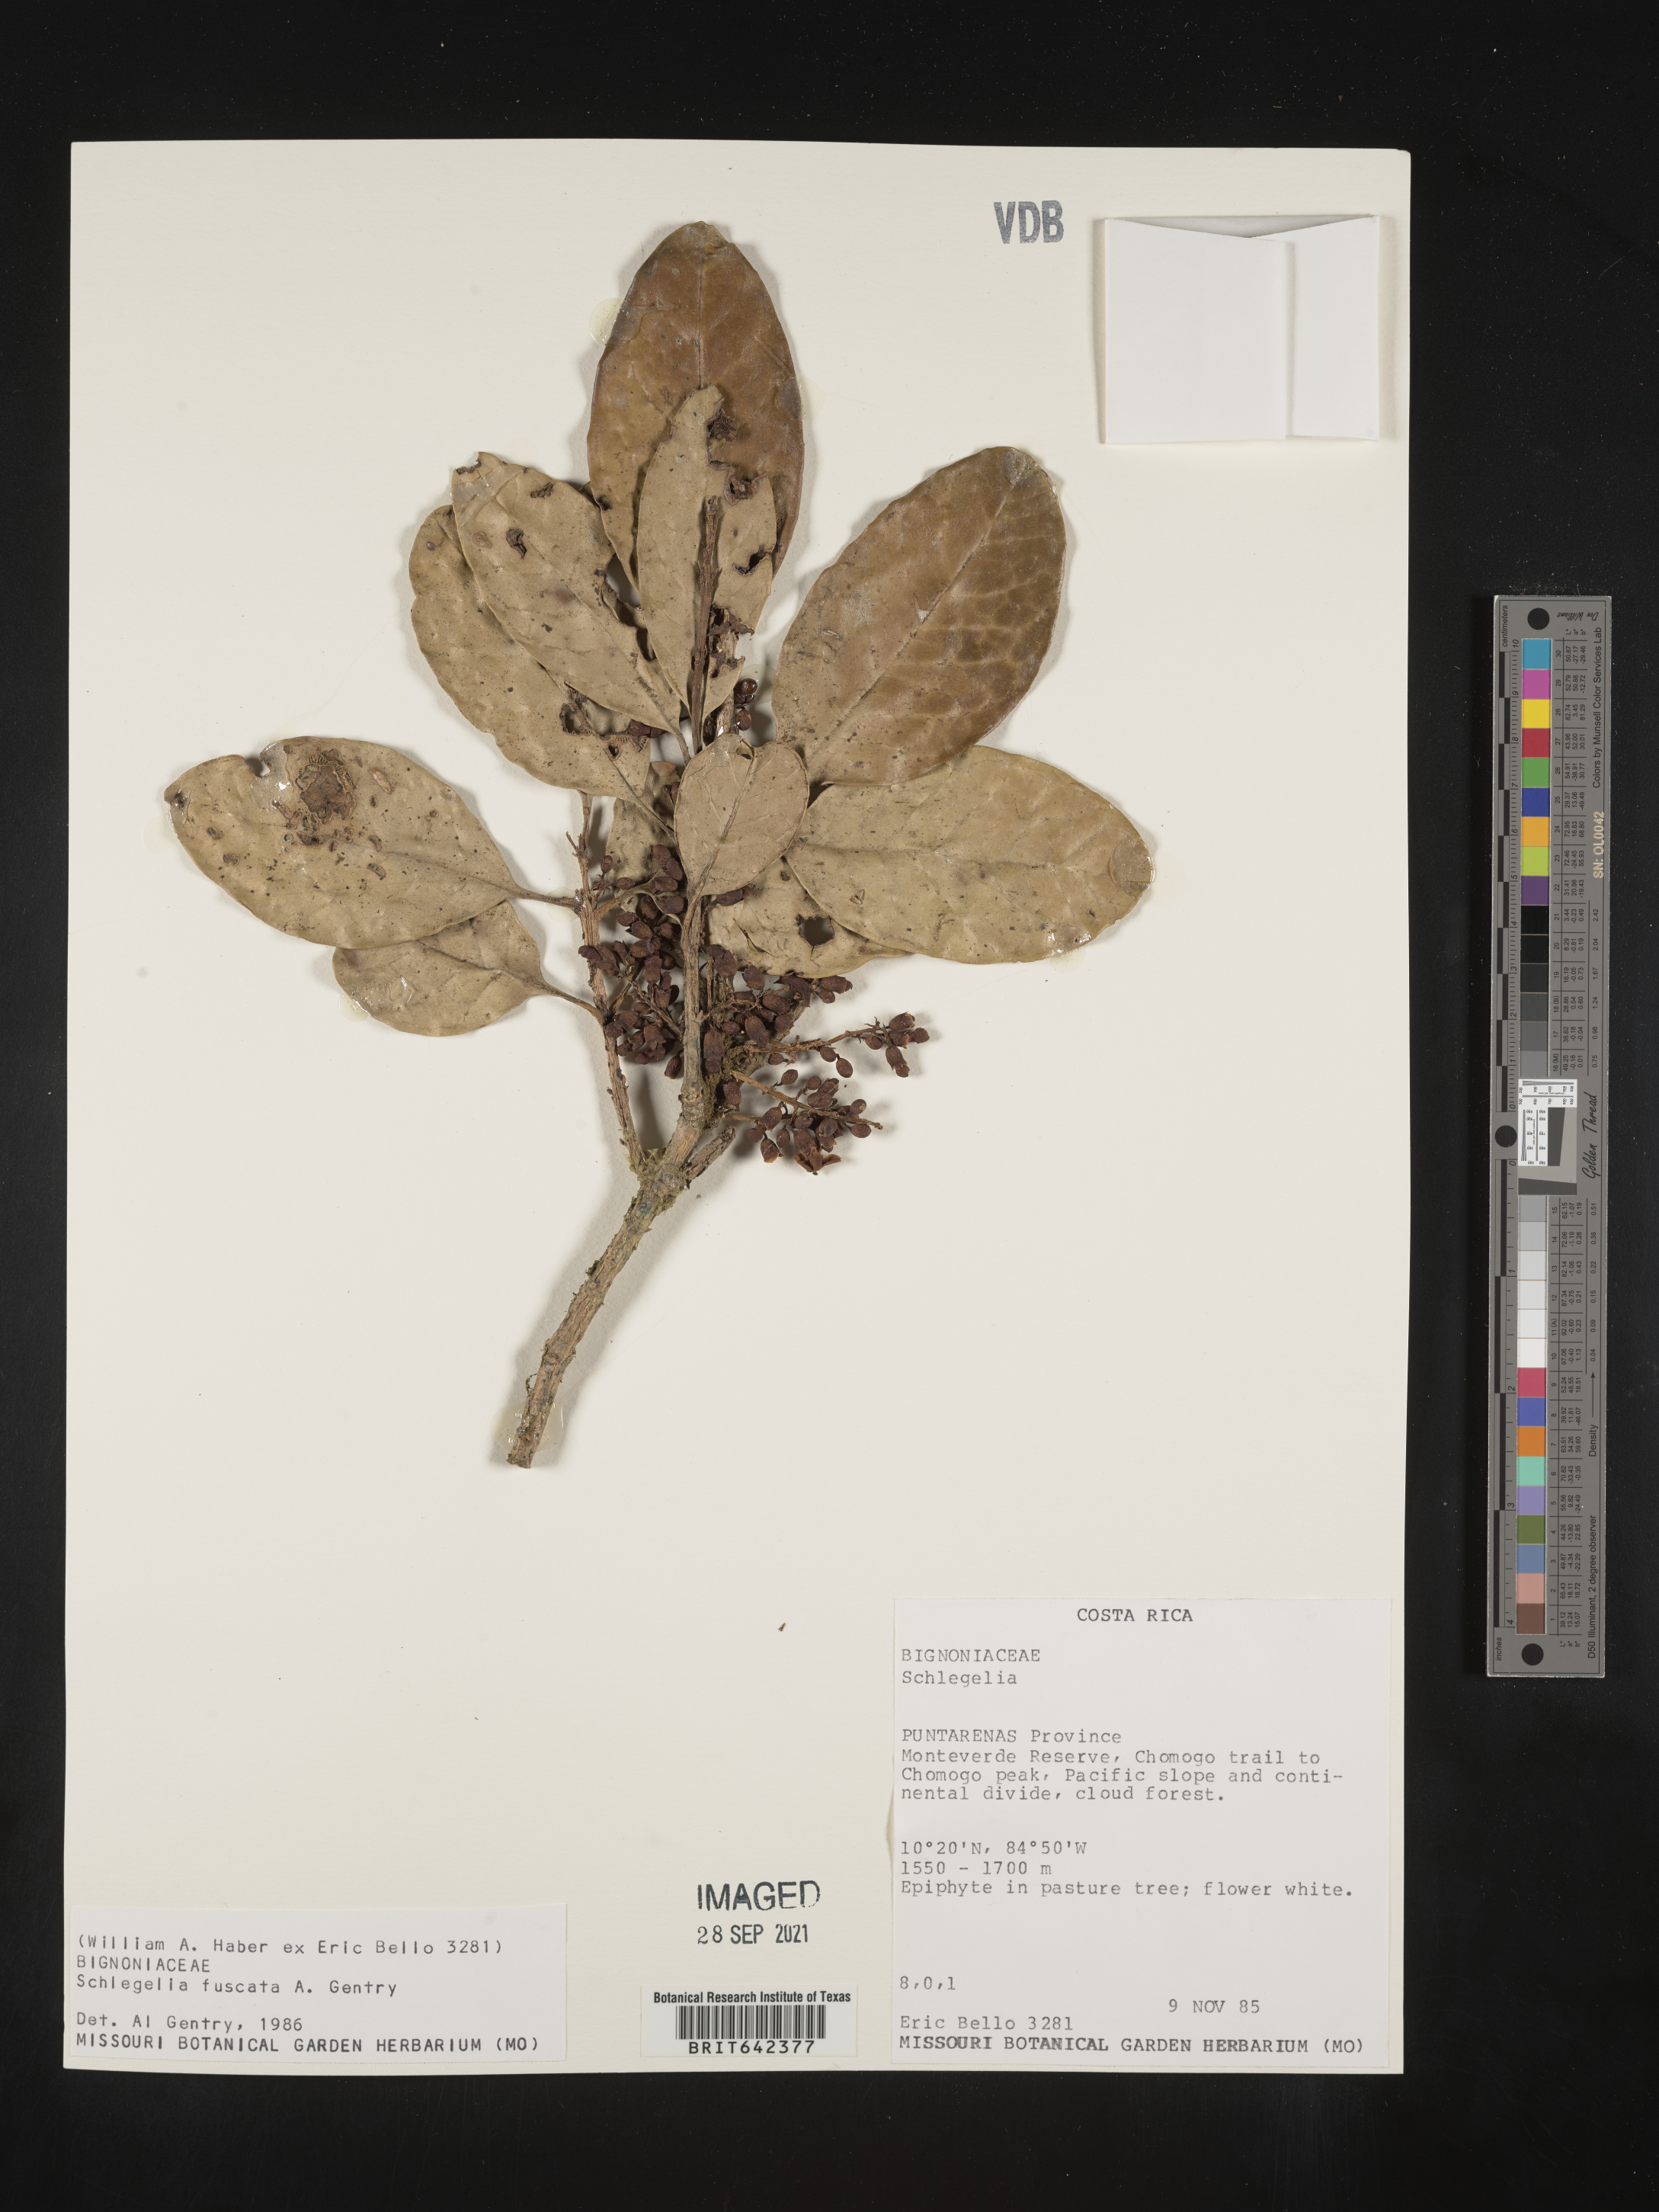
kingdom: Plantae
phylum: Tracheophyta
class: Magnoliopsida
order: Lamiales
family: Schlegeliaceae
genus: Schlegelia
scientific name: Schlegelia
